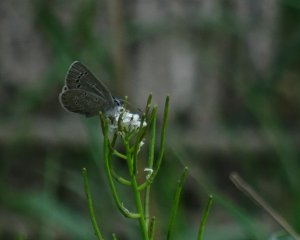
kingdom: Animalia
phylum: Arthropoda
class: Insecta
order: Lepidoptera
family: Lycaenidae
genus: Glaucopsyche
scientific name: Glaucopsyche lygdamus
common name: Silvery Blue
